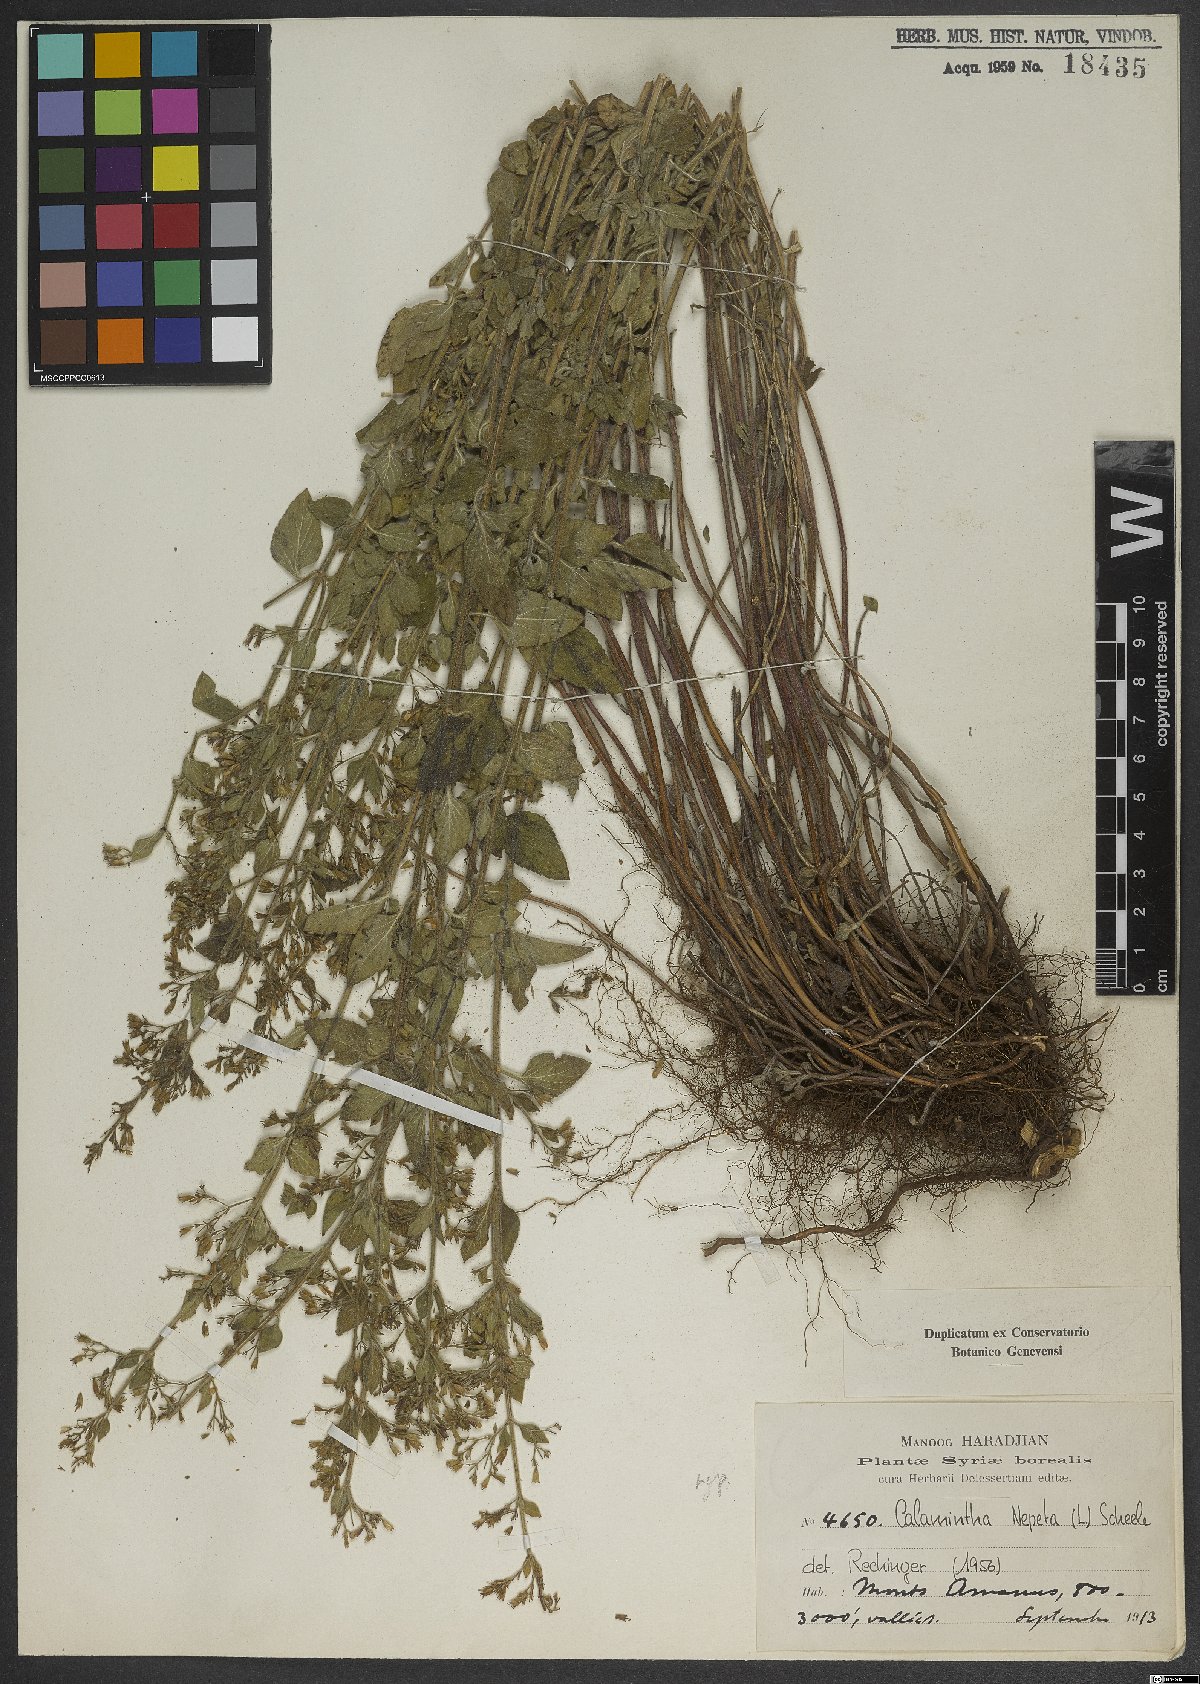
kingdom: Plantae
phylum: Tracheophyta
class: Magnoliopsida
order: Lamiales
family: Lamiaceae
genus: Clinopodium
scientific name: Clinopodium nepeta
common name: Lesser calamint
